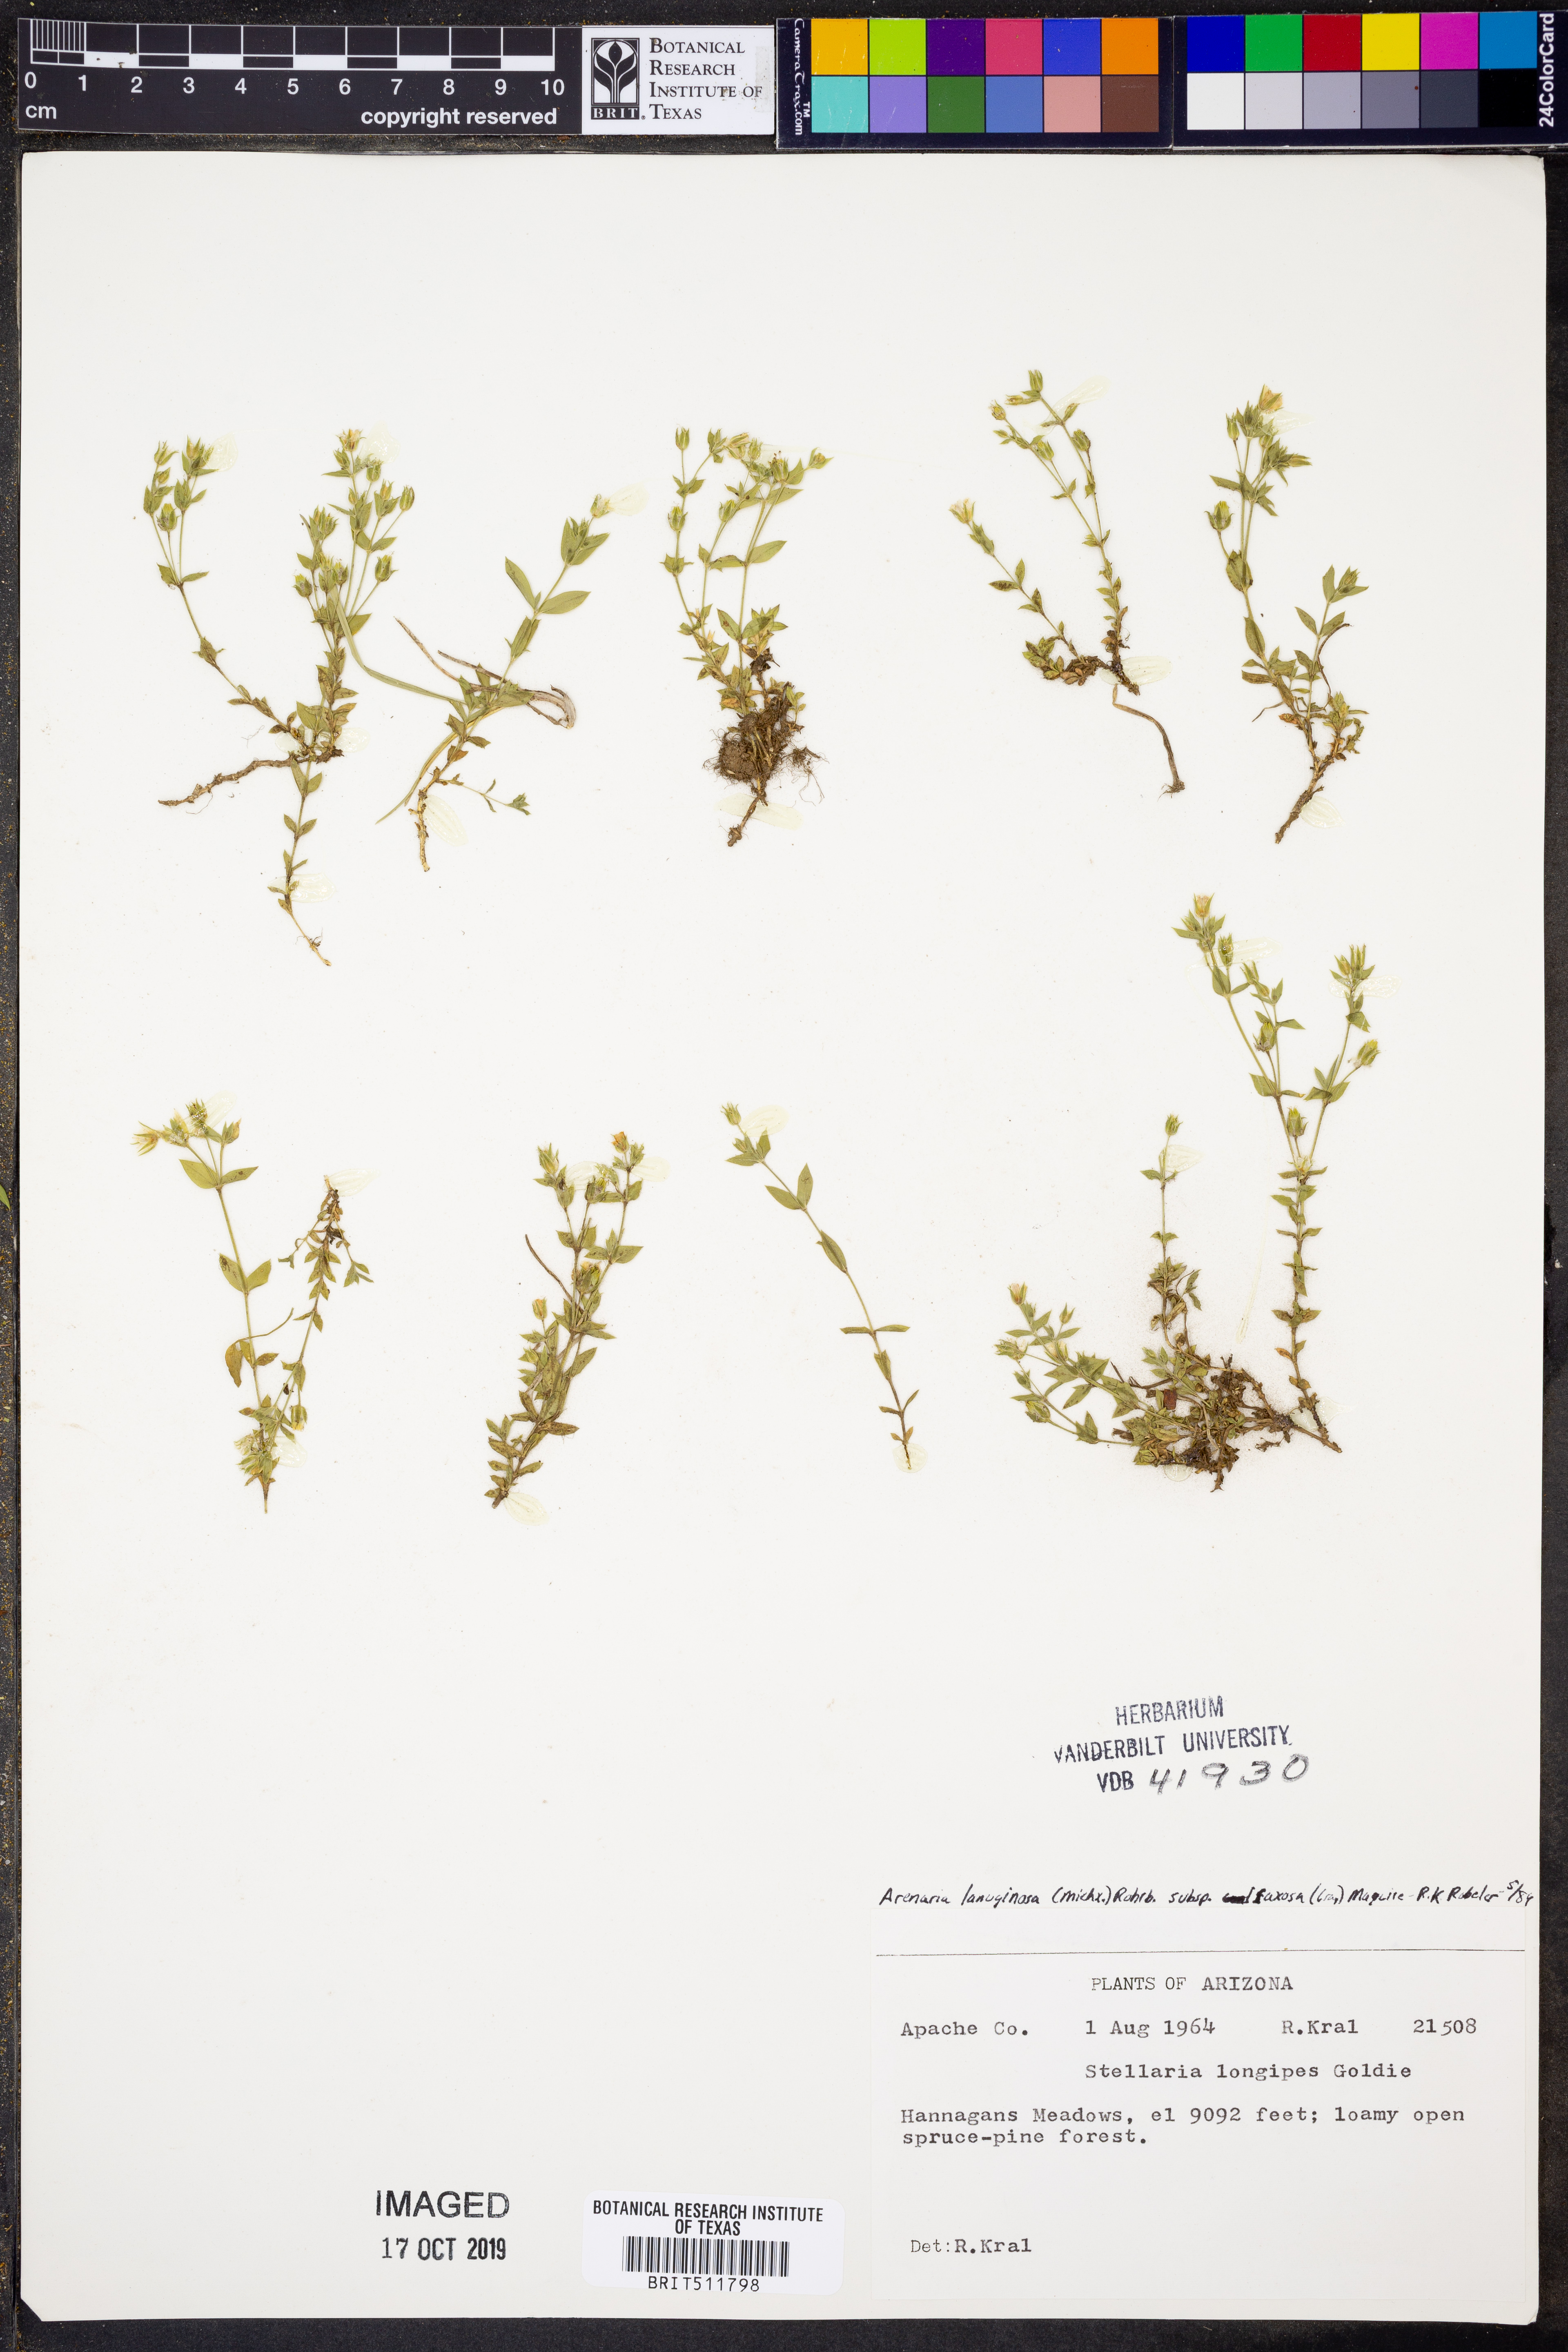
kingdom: Plantae
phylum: Tracheophyta
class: Magnoliopsida
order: Caryophyllales
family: Caryophyllaceae
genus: Arenaria
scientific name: Arenaria lanuginosa
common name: Spread sandwort
